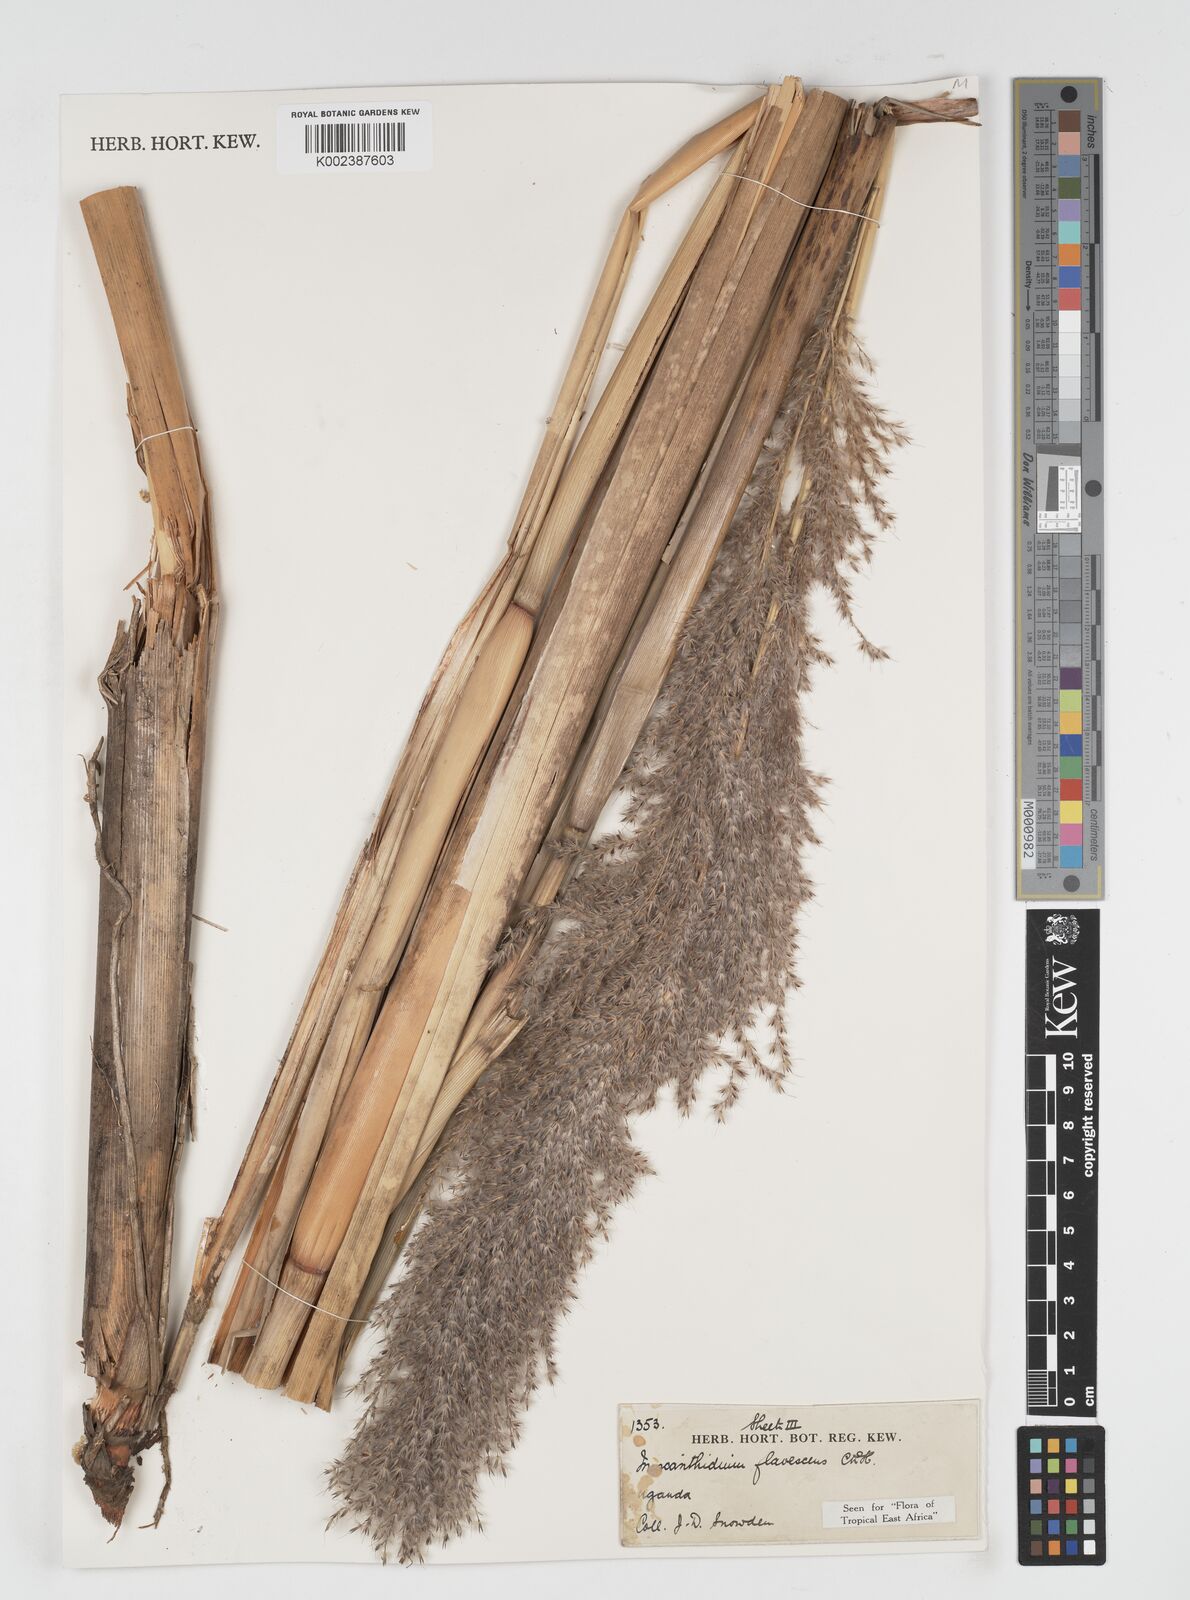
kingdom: Plantae
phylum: Tracheophyta
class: Liliopsida
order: Poales
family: Poaceae
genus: Miscanthidium
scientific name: Miscanthidium violaceum
